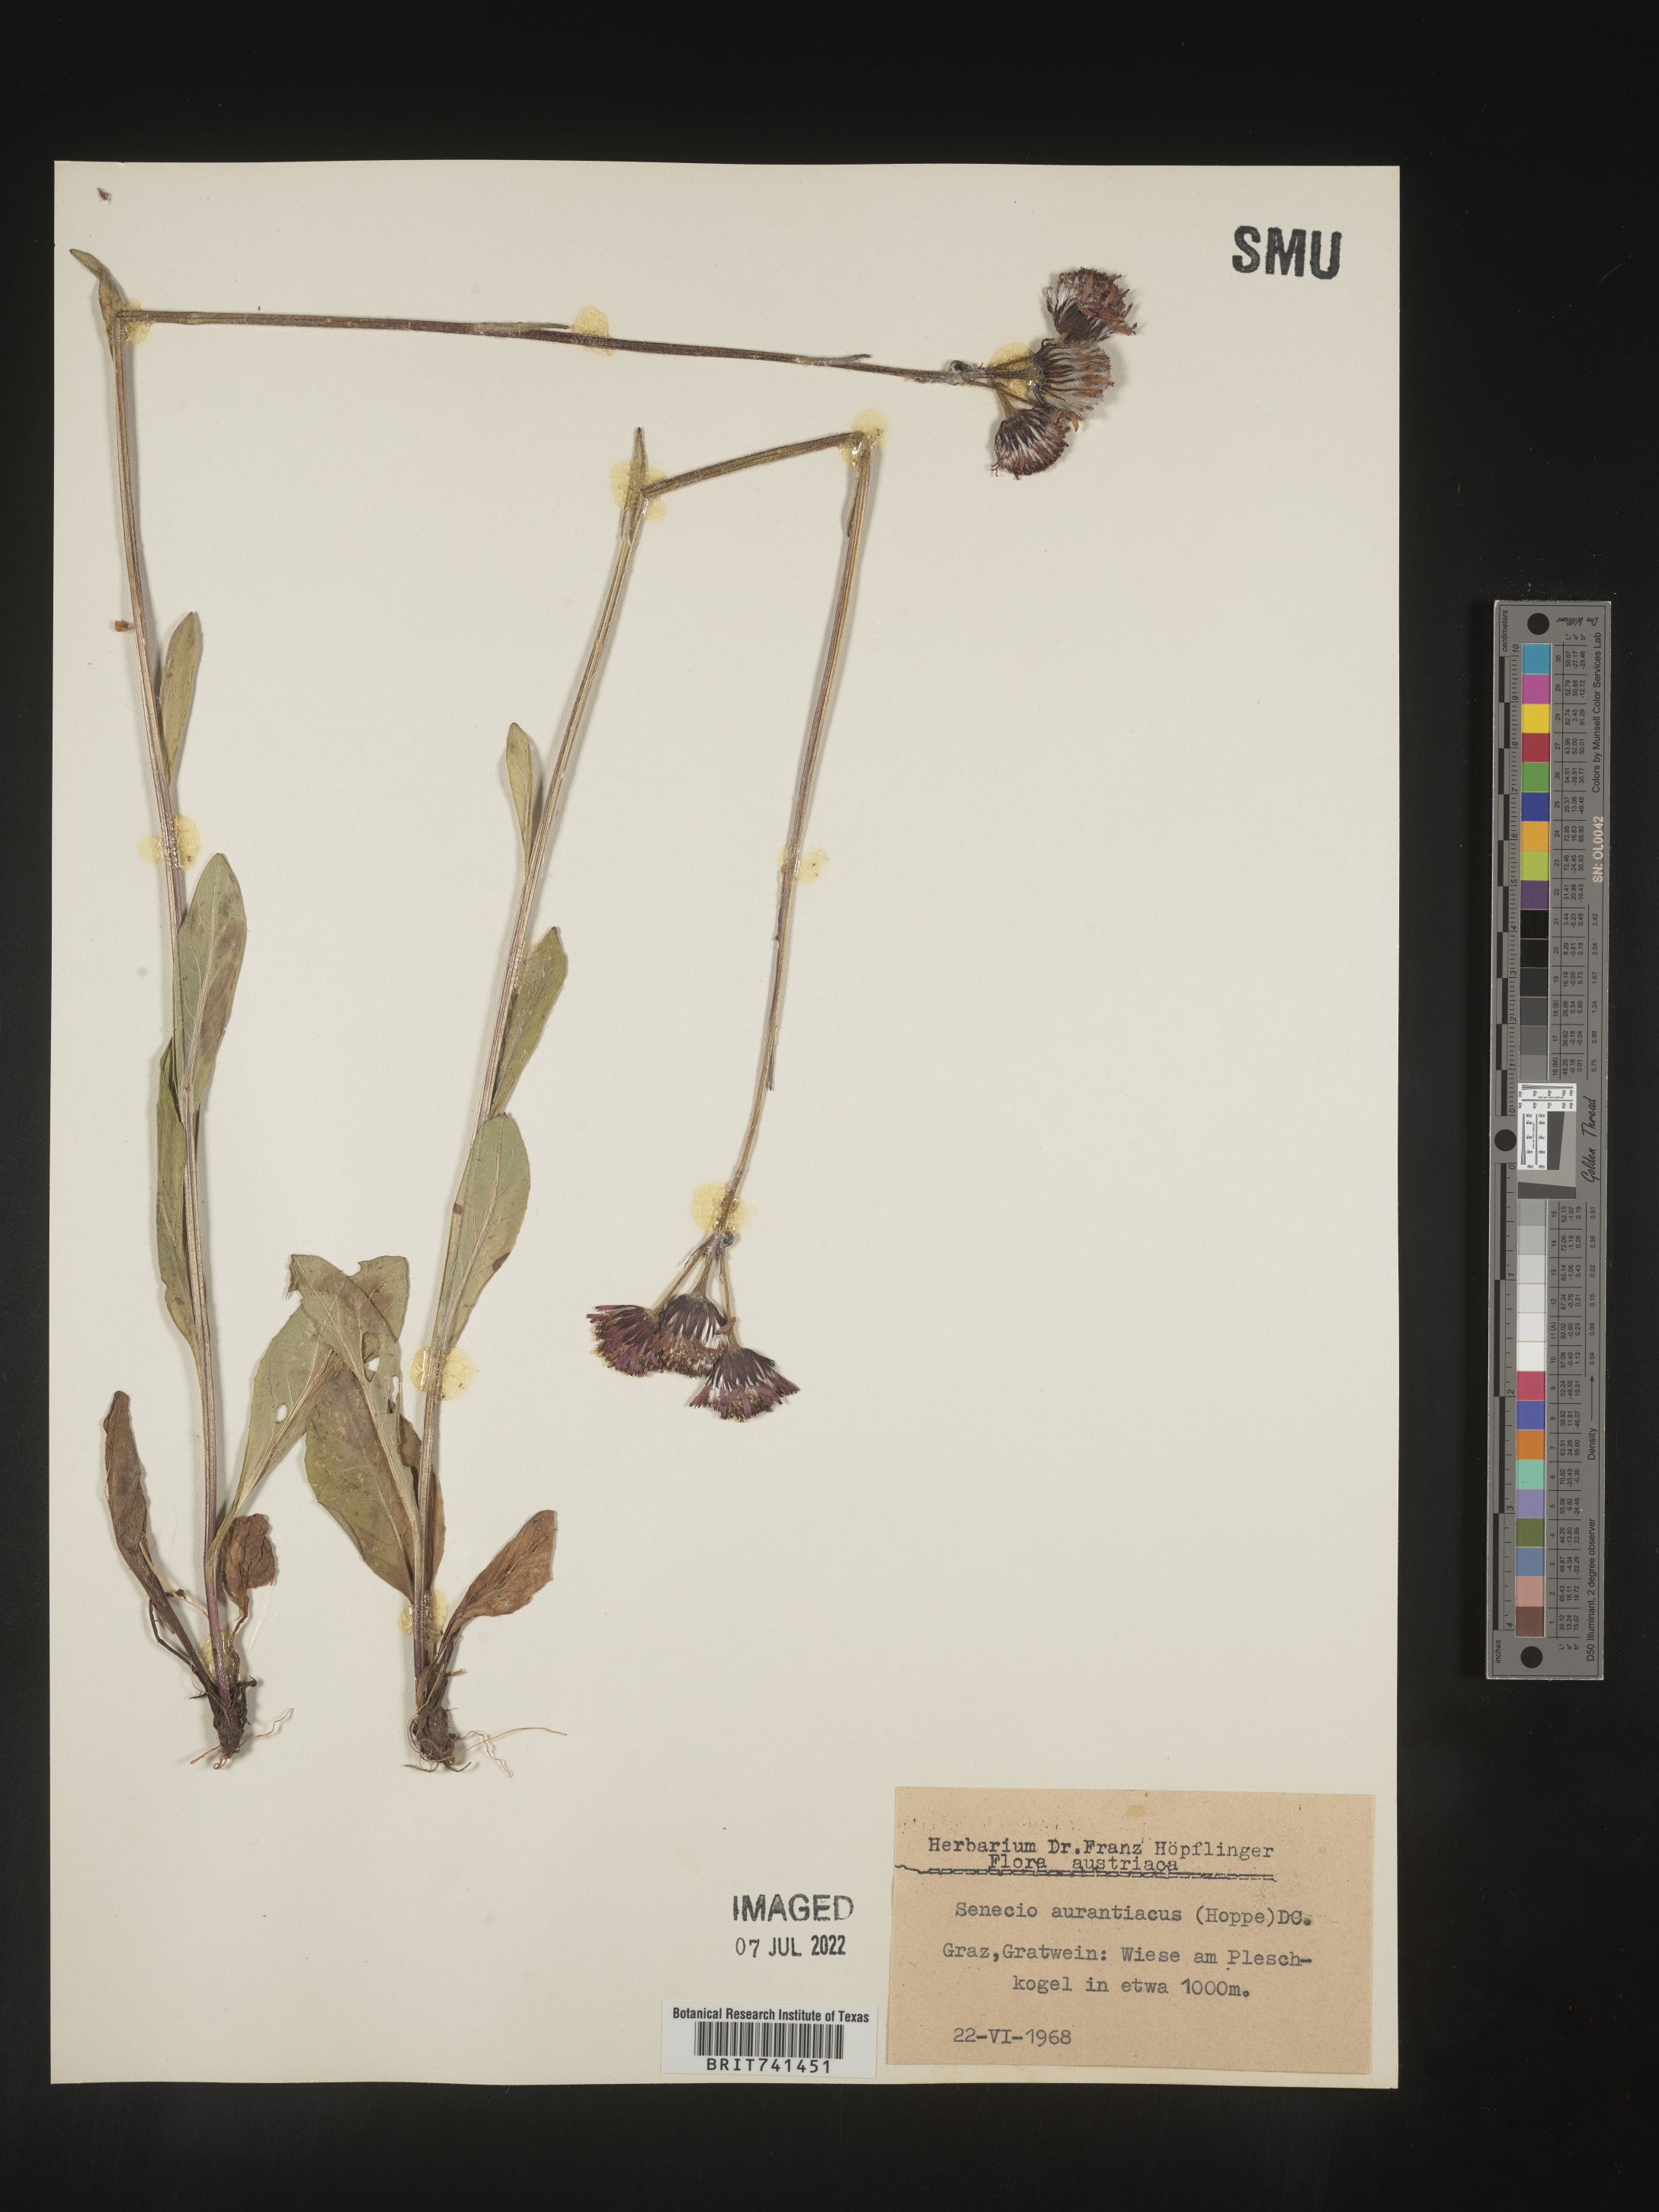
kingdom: Plantae
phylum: Tracheophyta
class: Magnoliopsida
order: Asterales
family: Asteraceae
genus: Senecio
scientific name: Senecio
